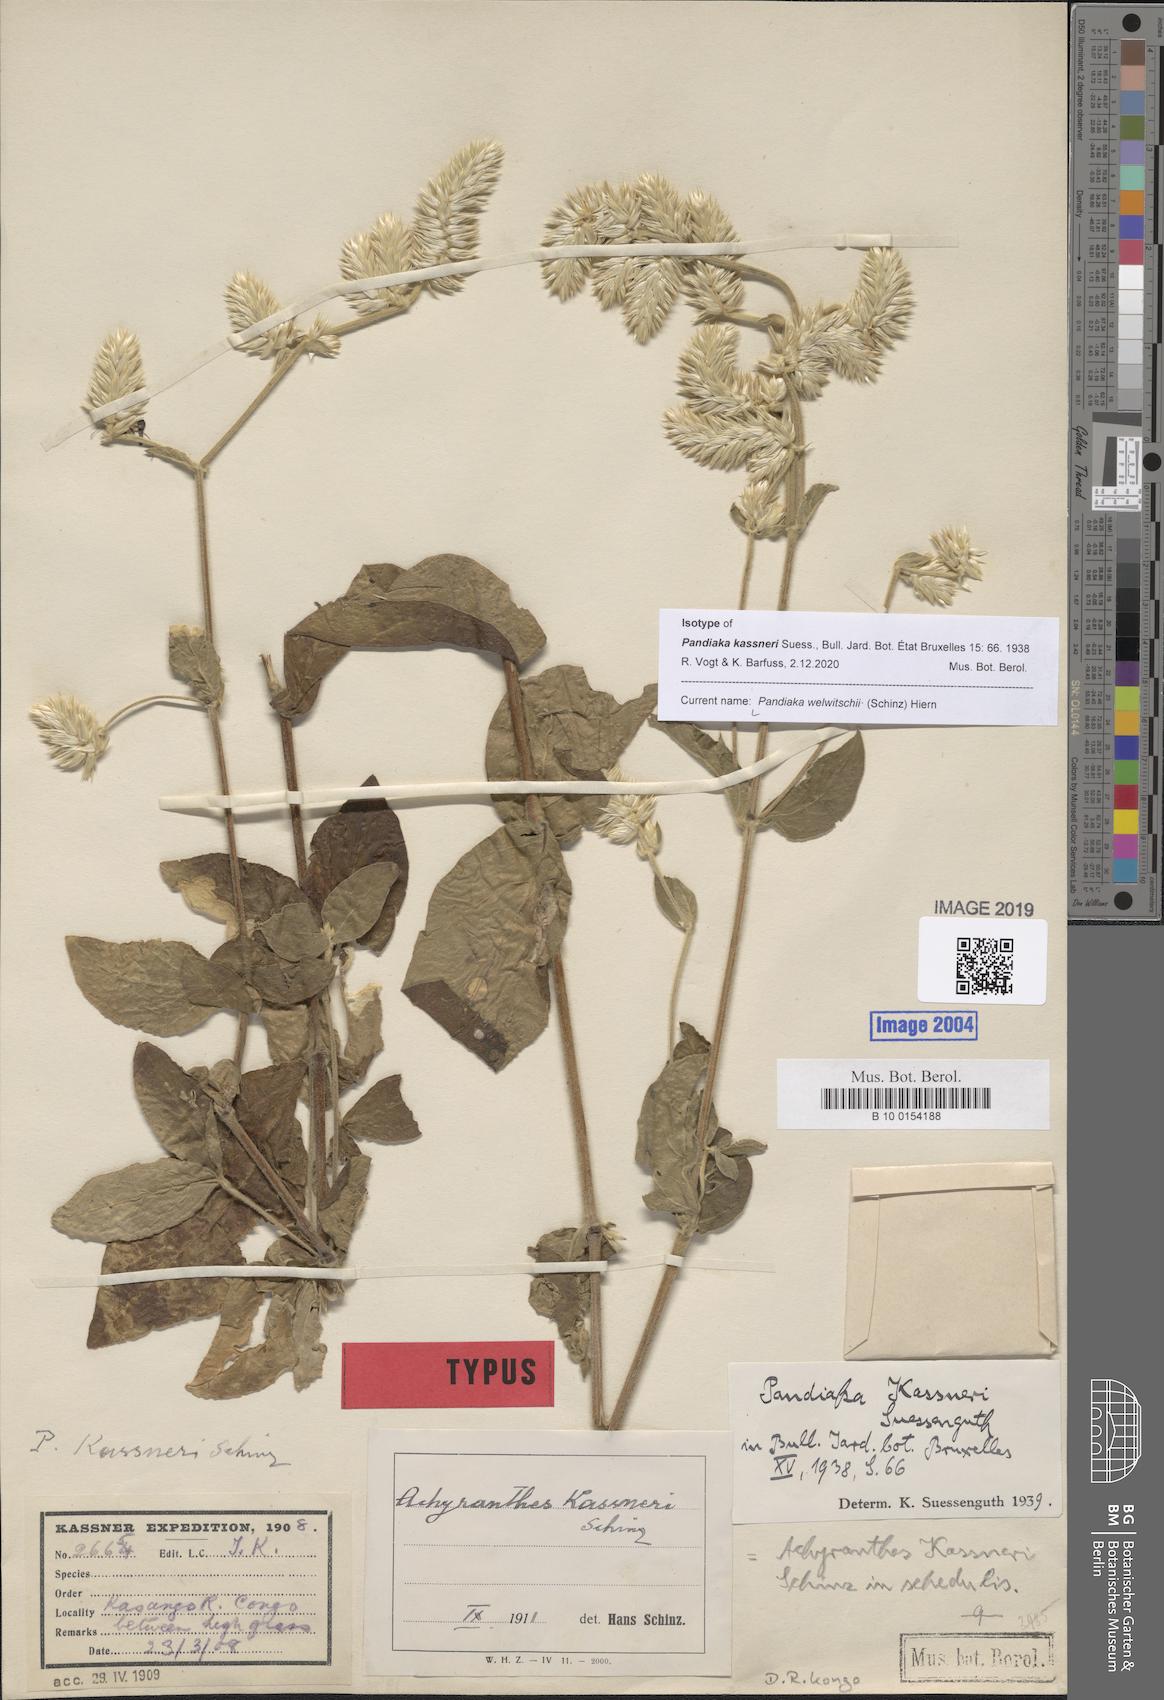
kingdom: Plantae
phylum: Tracheophyta
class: Magnoliopsida
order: Caryophyllales
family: Amaranthaceae
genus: Pandiaka
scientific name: Pandiaka welwitschii
